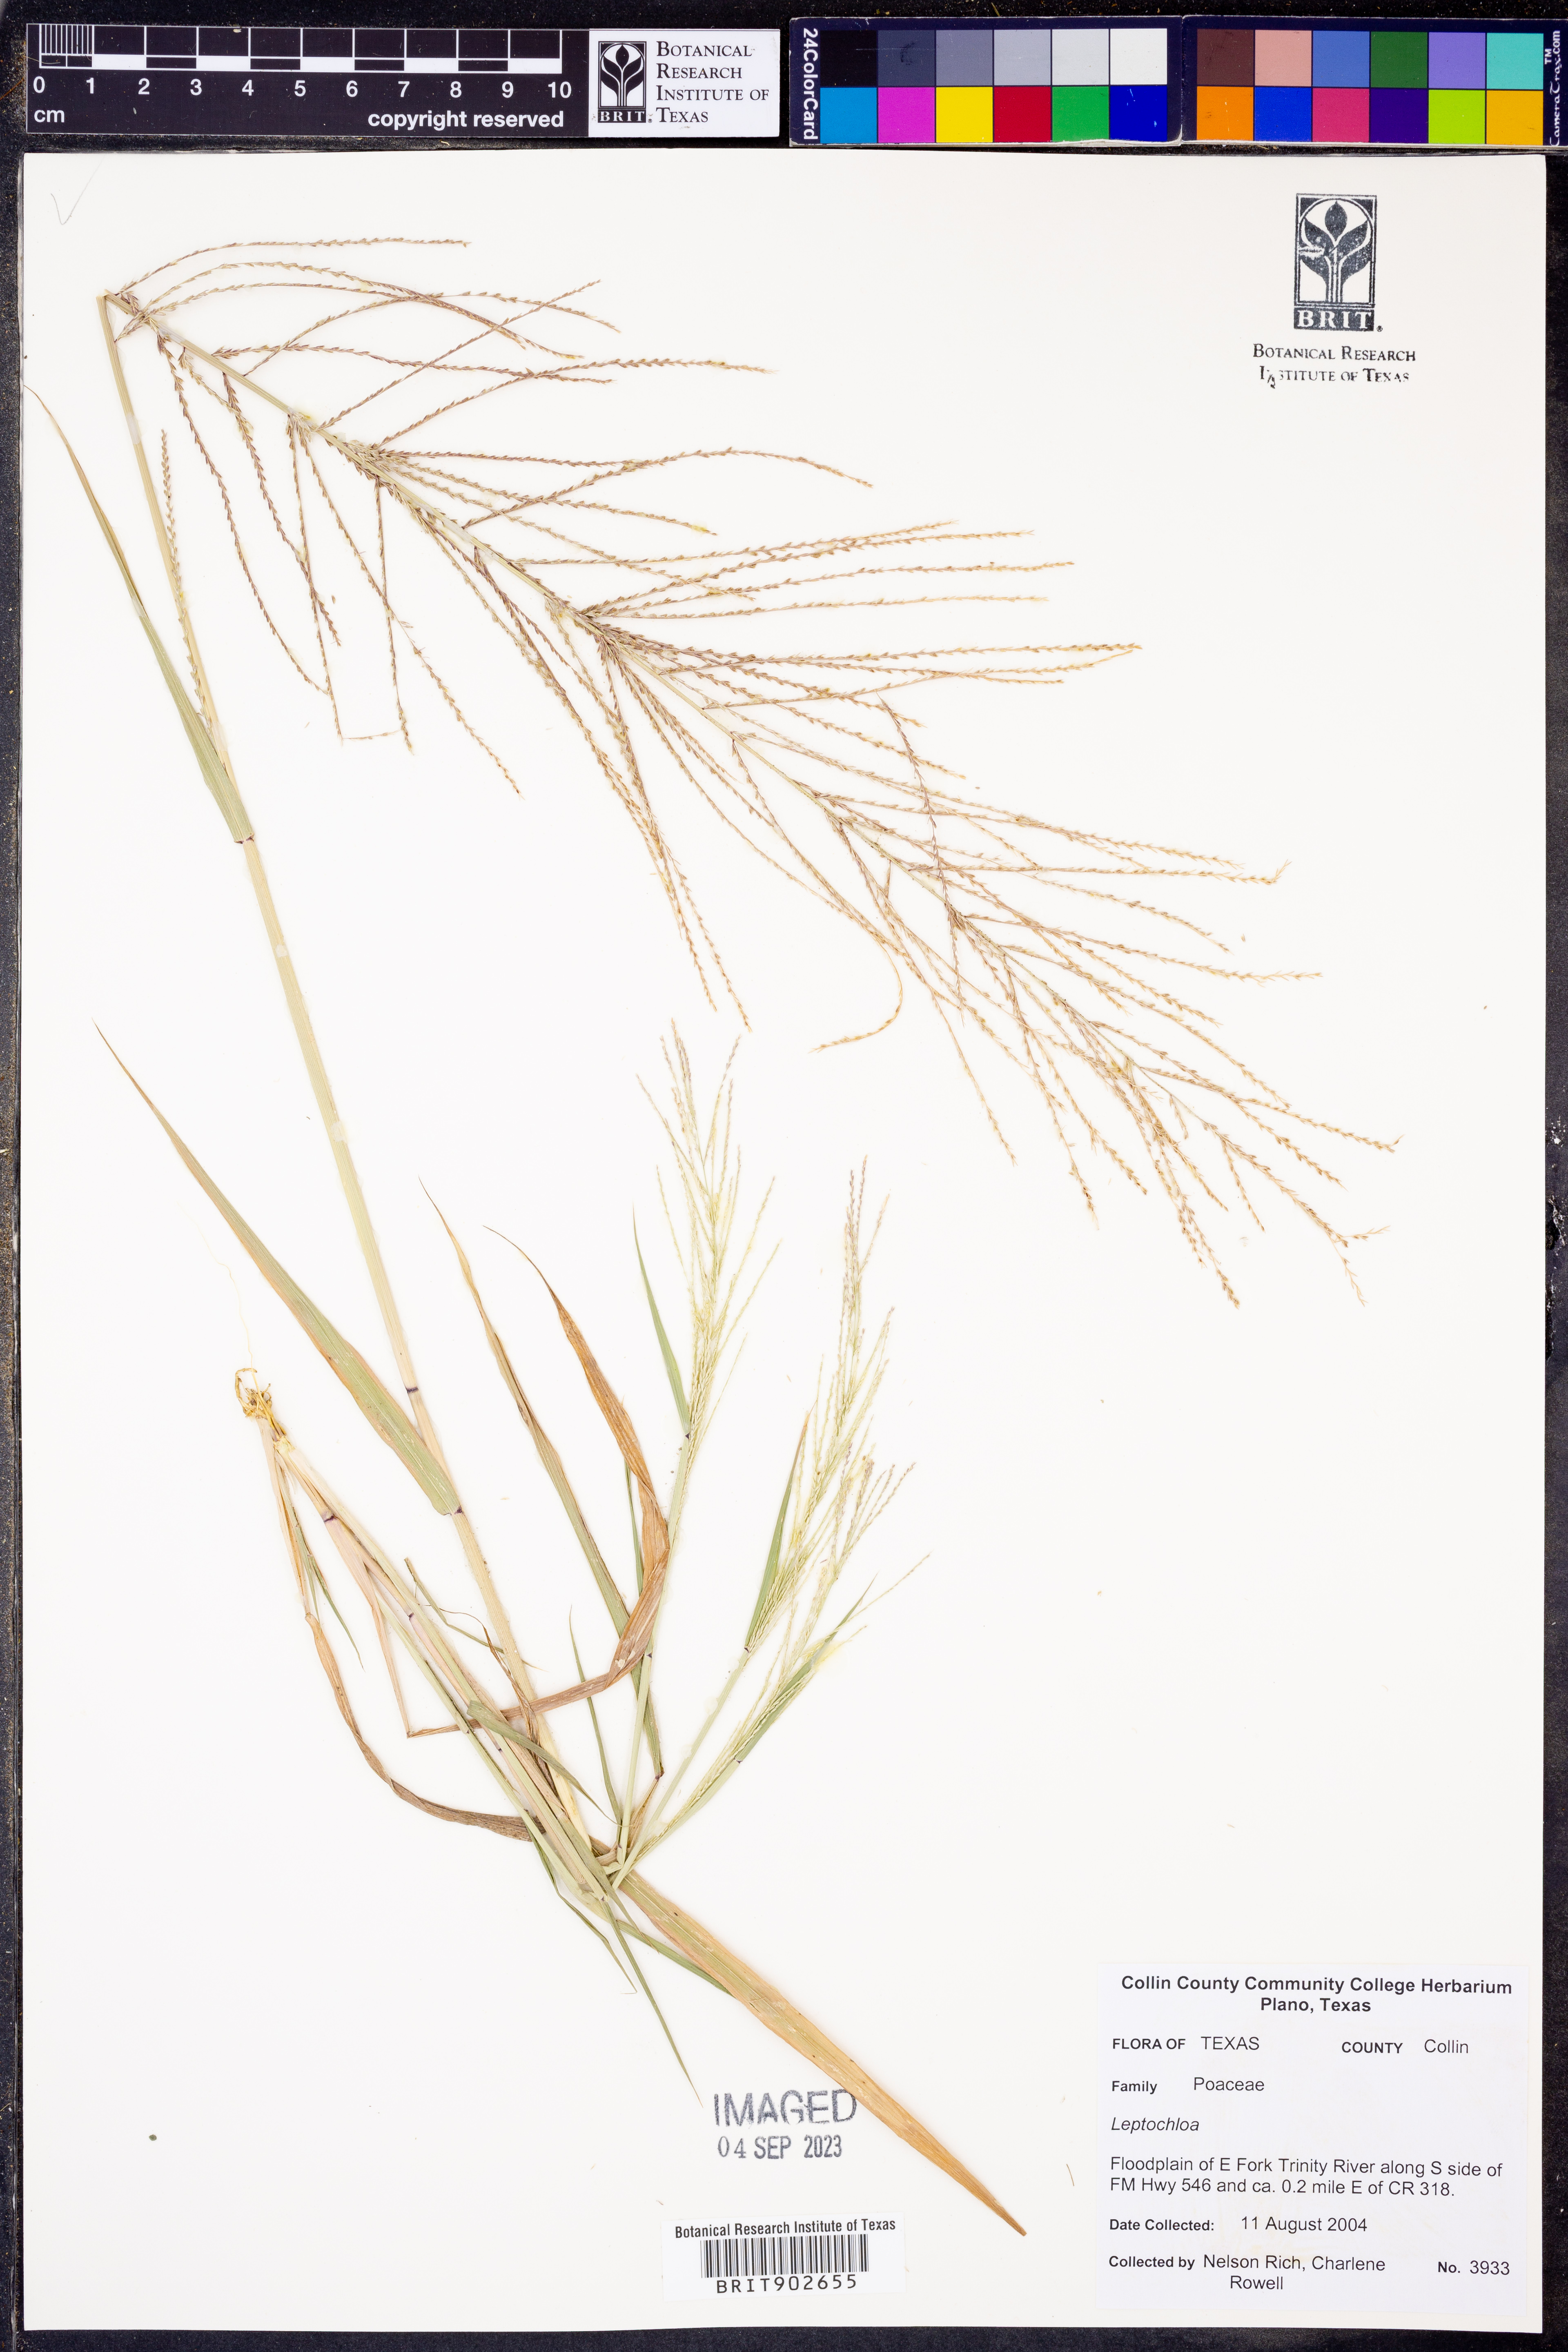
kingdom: Plantae
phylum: Tracheophyta
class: Liliopsida
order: Poales
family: Poaceae
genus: Leptochloa
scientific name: Leptochloa
